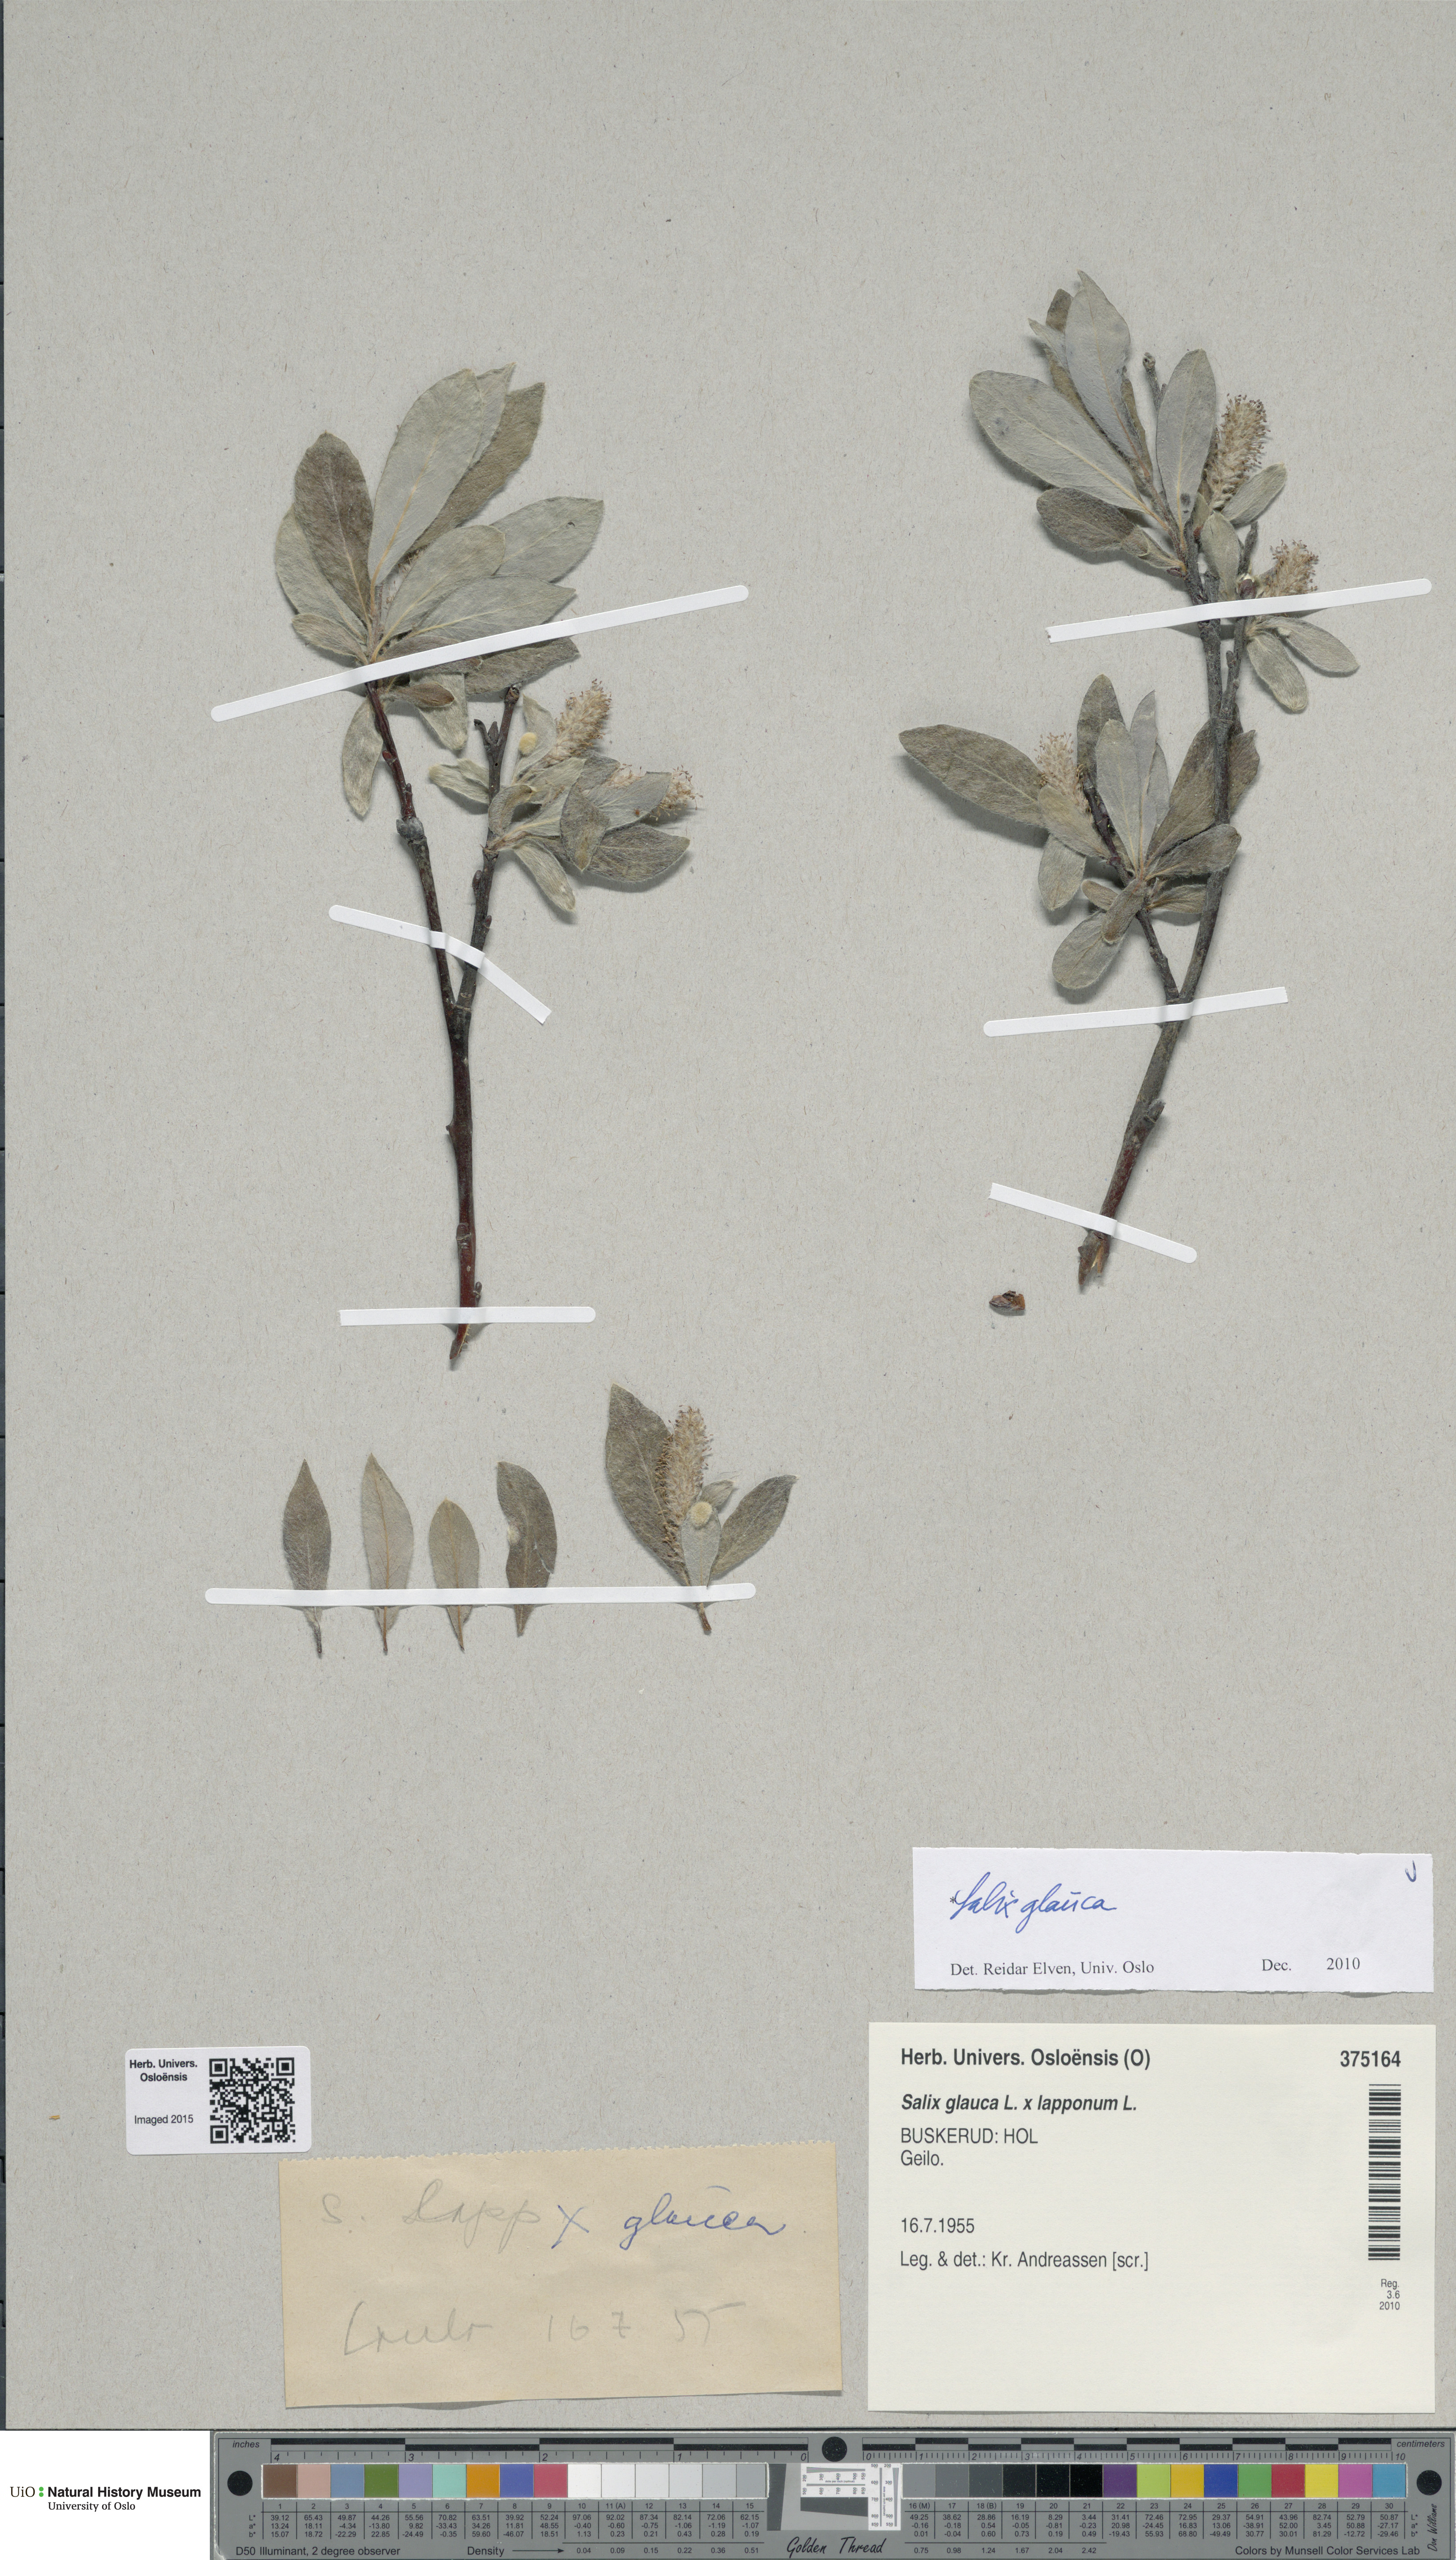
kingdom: Plantae
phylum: Tracheophyta
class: Magnoliopsida
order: Malpighiales
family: Salicaceae
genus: Salix
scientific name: Salix glauca
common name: Glaucous willow
